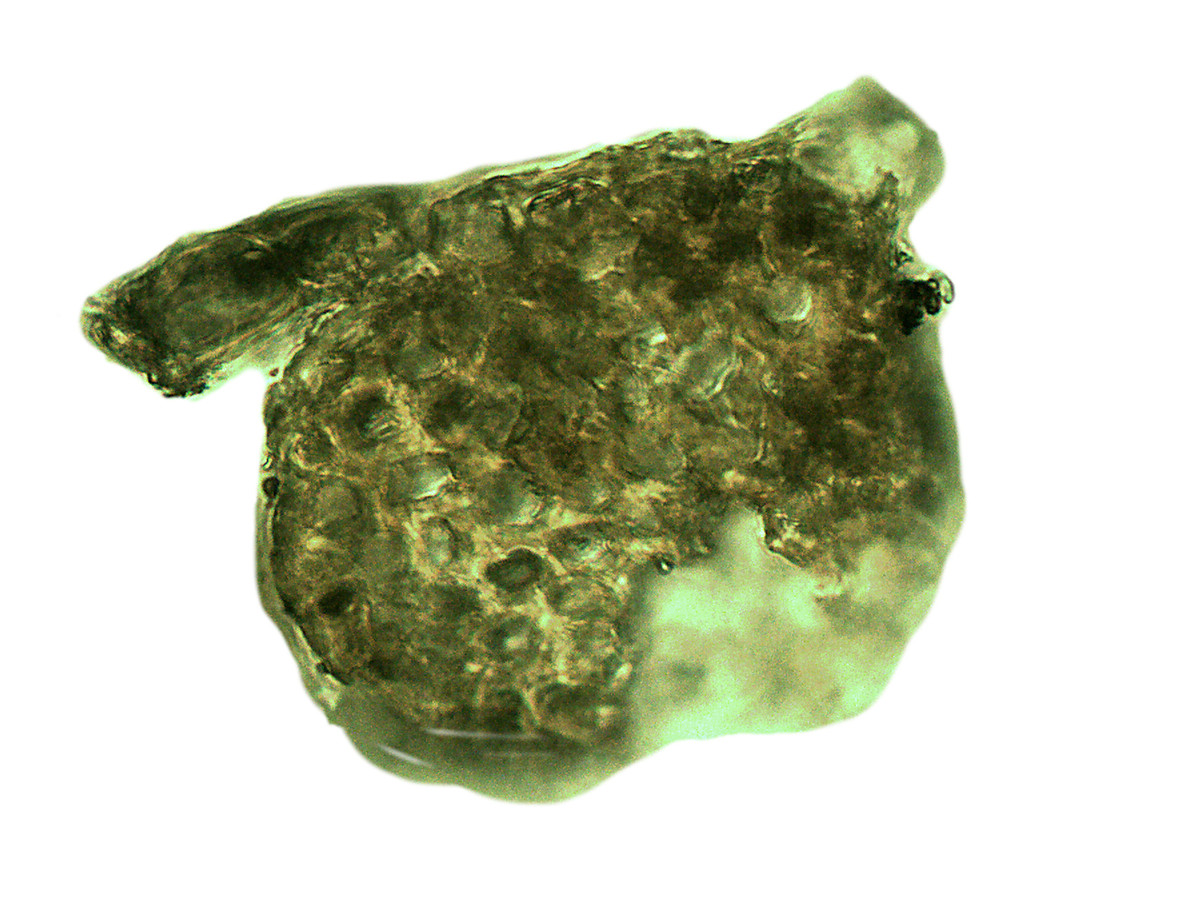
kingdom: Plantae
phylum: Marchantiophyta
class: Jungermanniopsida
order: Porellales
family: Radulaceae
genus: Radula
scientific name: Radula appressa
